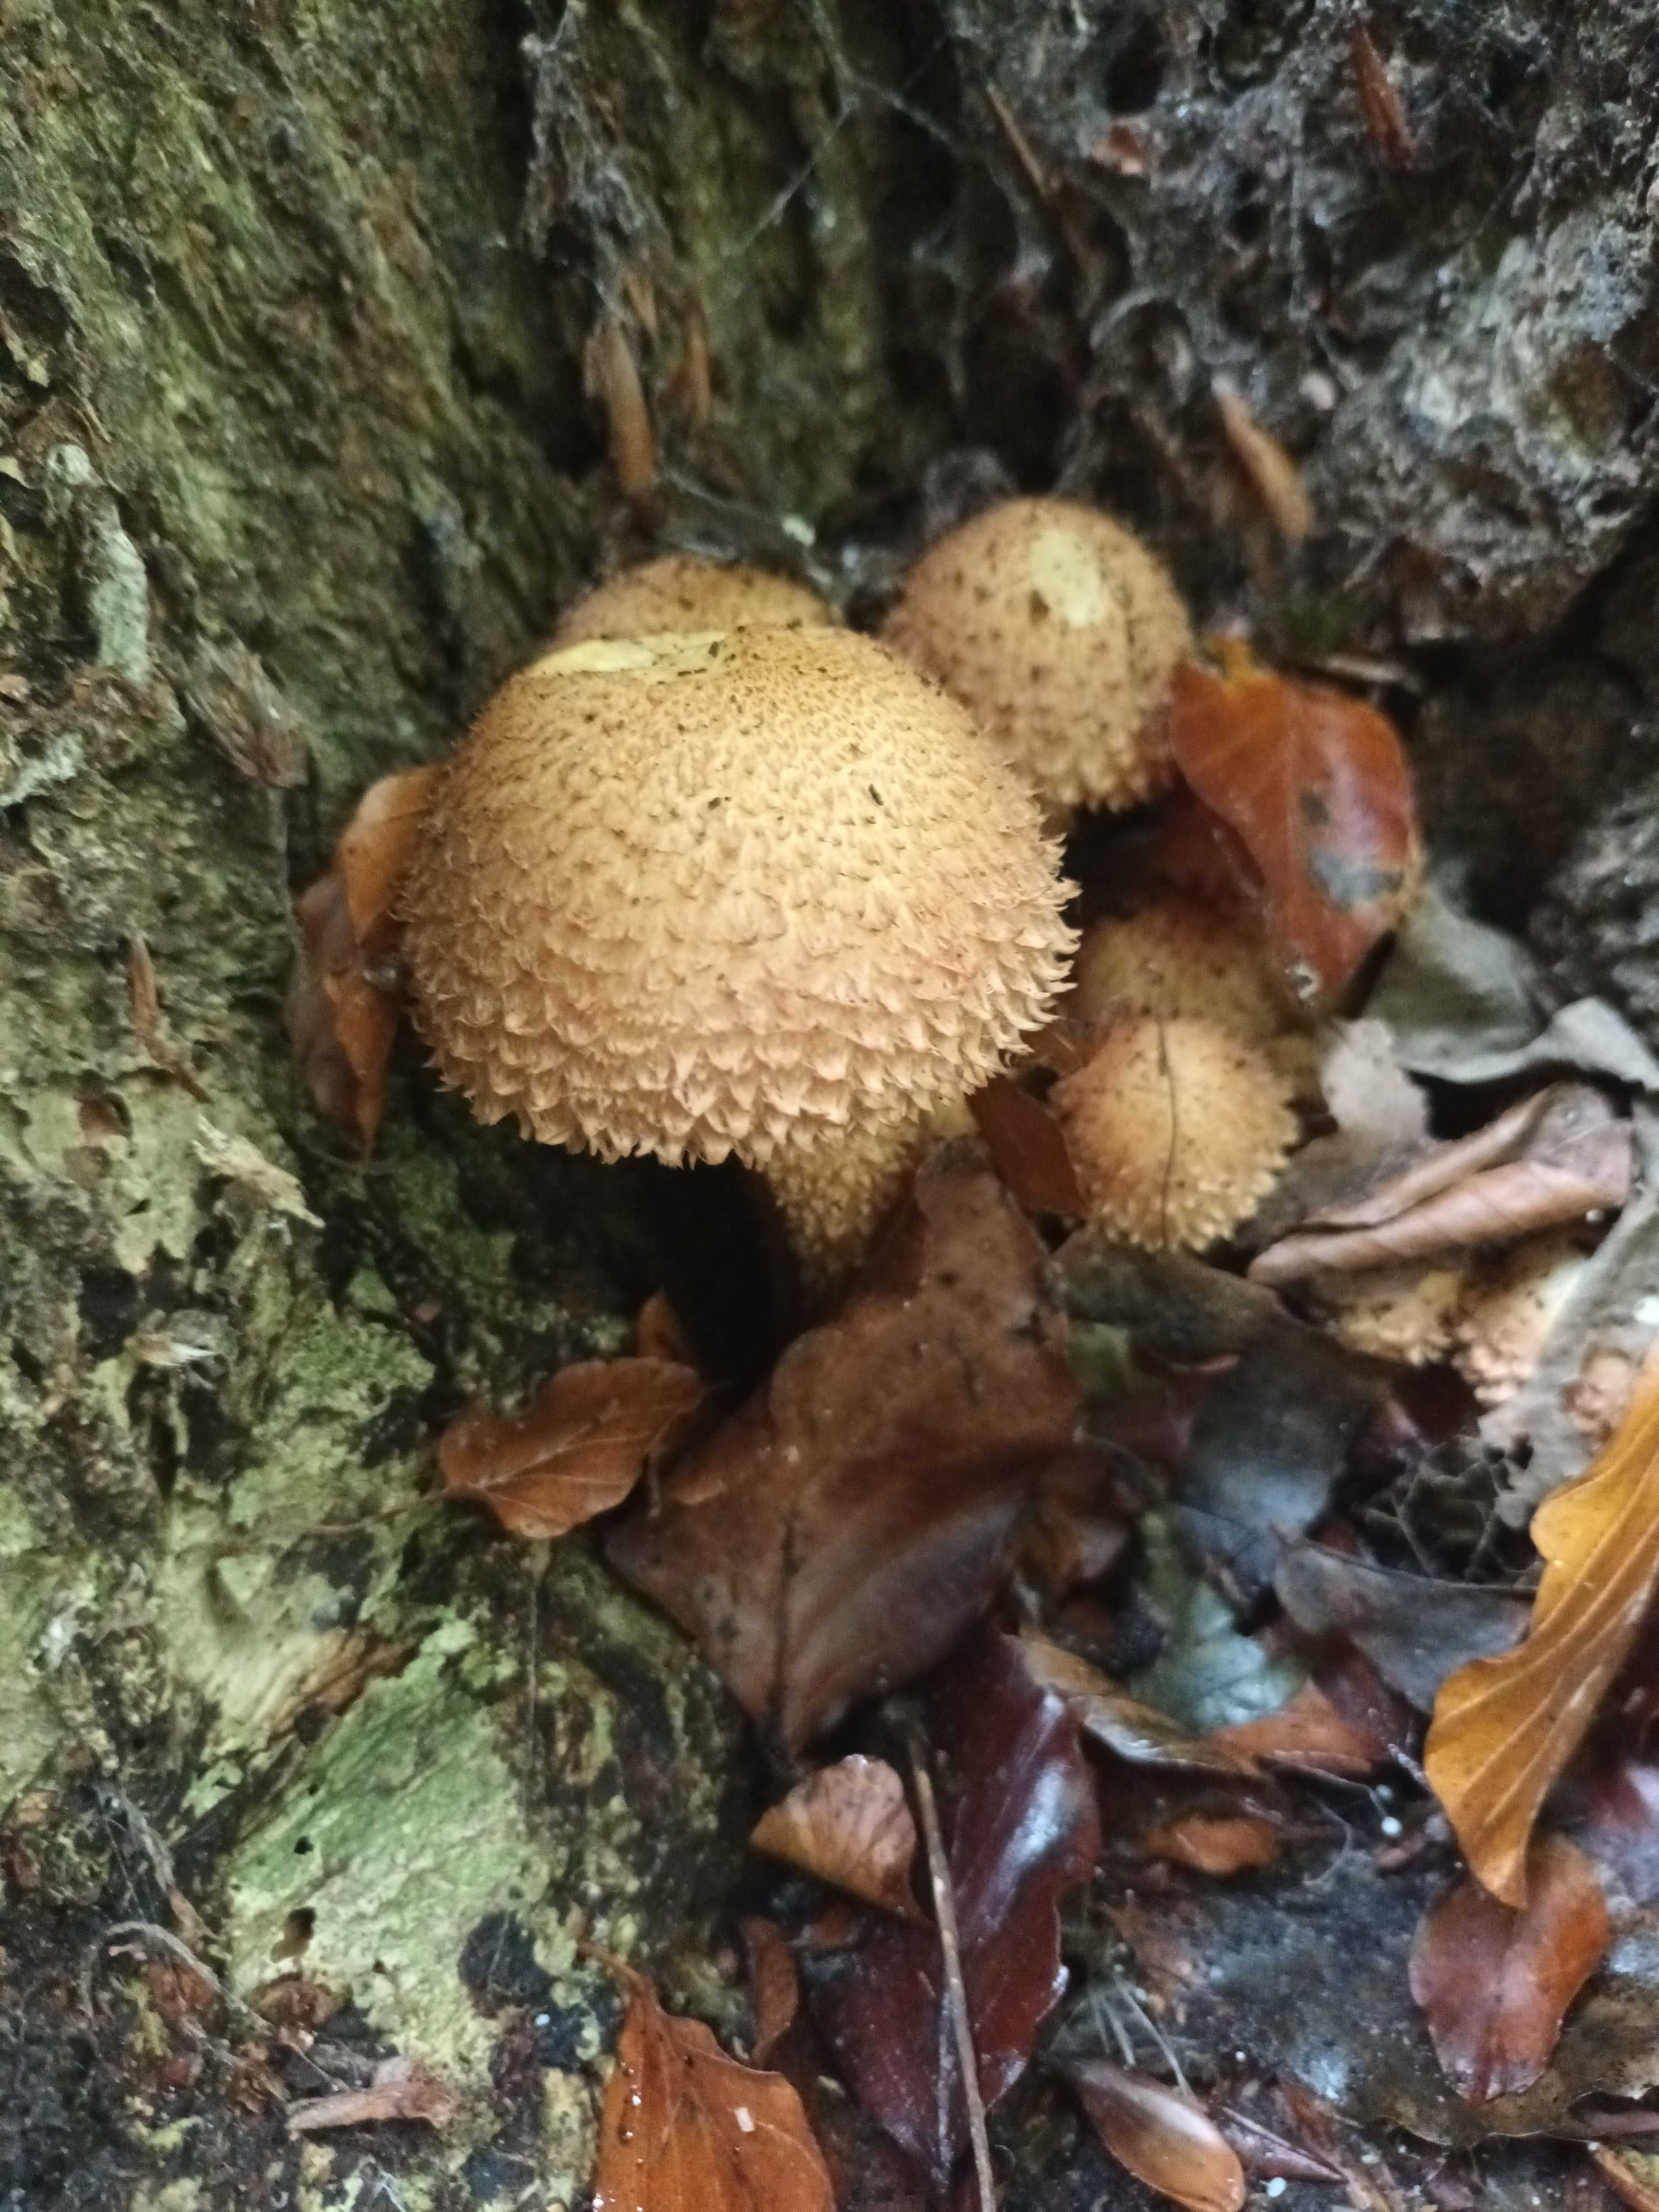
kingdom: Fungi
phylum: Basidiomycota
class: Agaricomycetes
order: Agaricales
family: Strophariaceae
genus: Pholiota
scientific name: Pholiota squarrosa
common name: krumskællet skælhat
